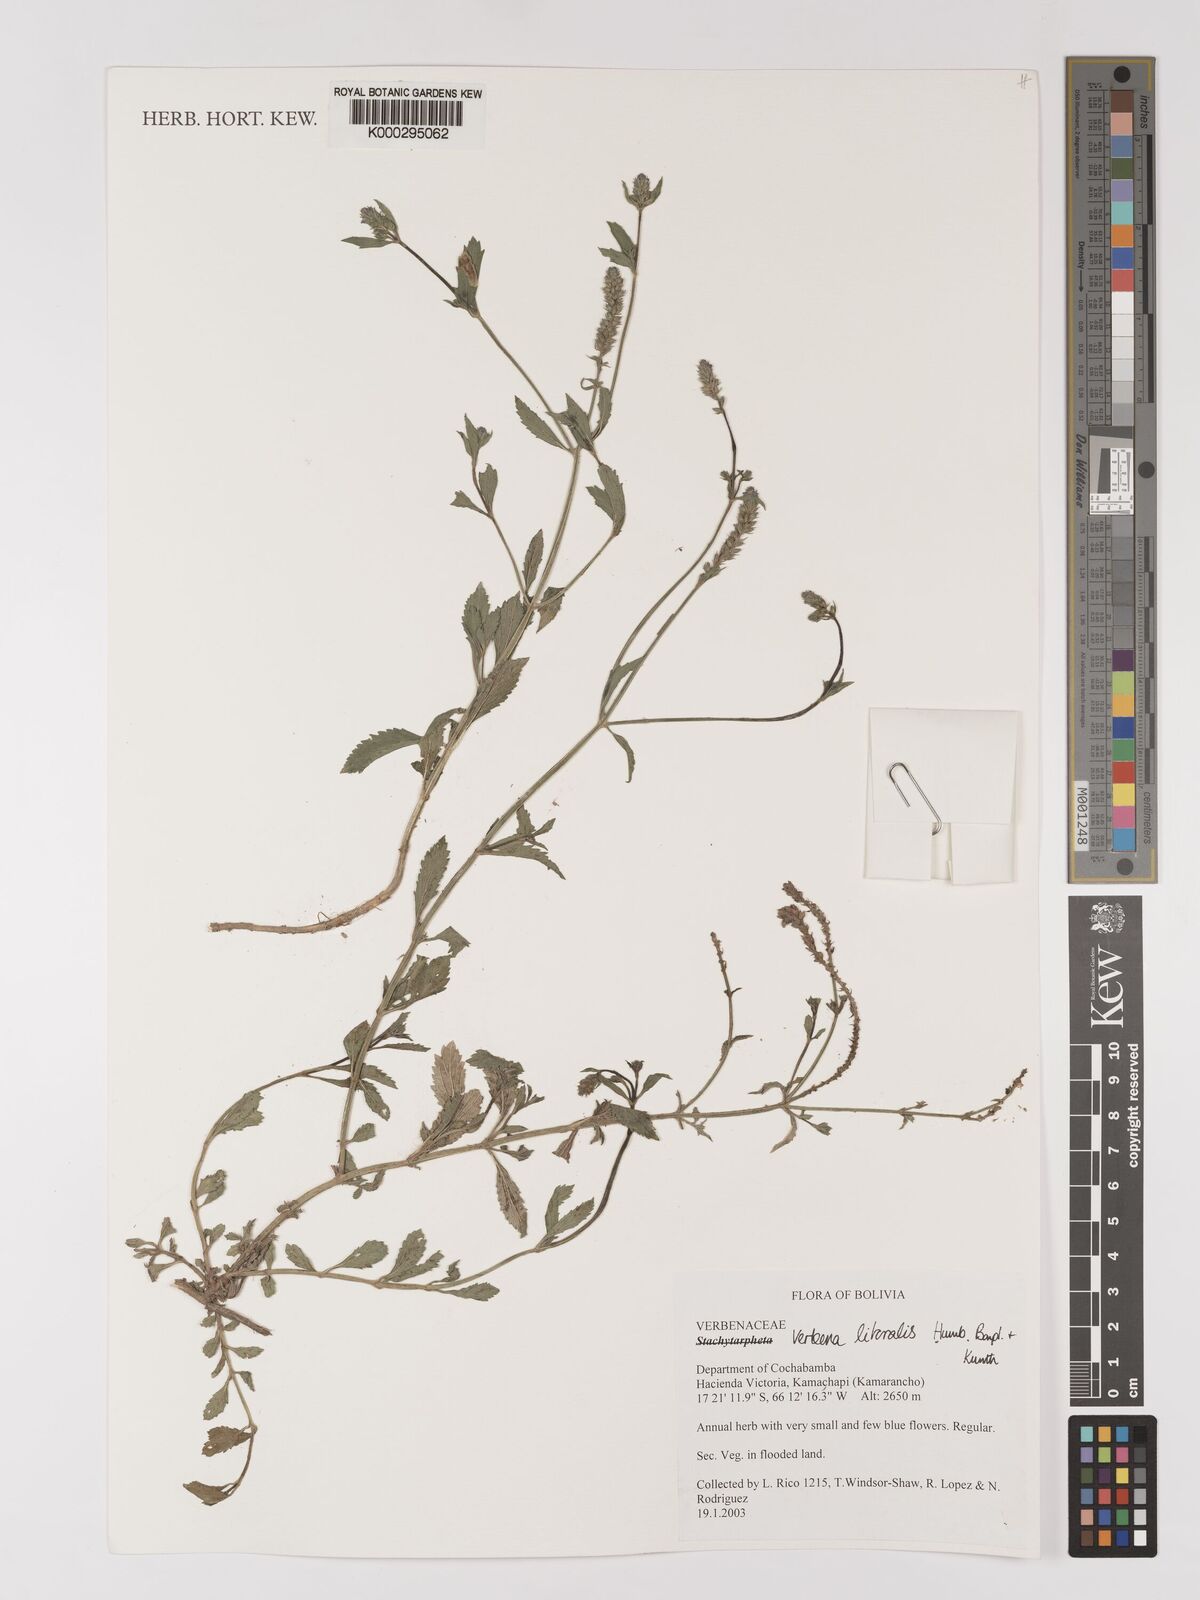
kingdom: Plantae
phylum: Tracheophyta
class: Magnoliopsida
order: Lamiales
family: Verbenaceae
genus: Verbena
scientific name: Verbena
